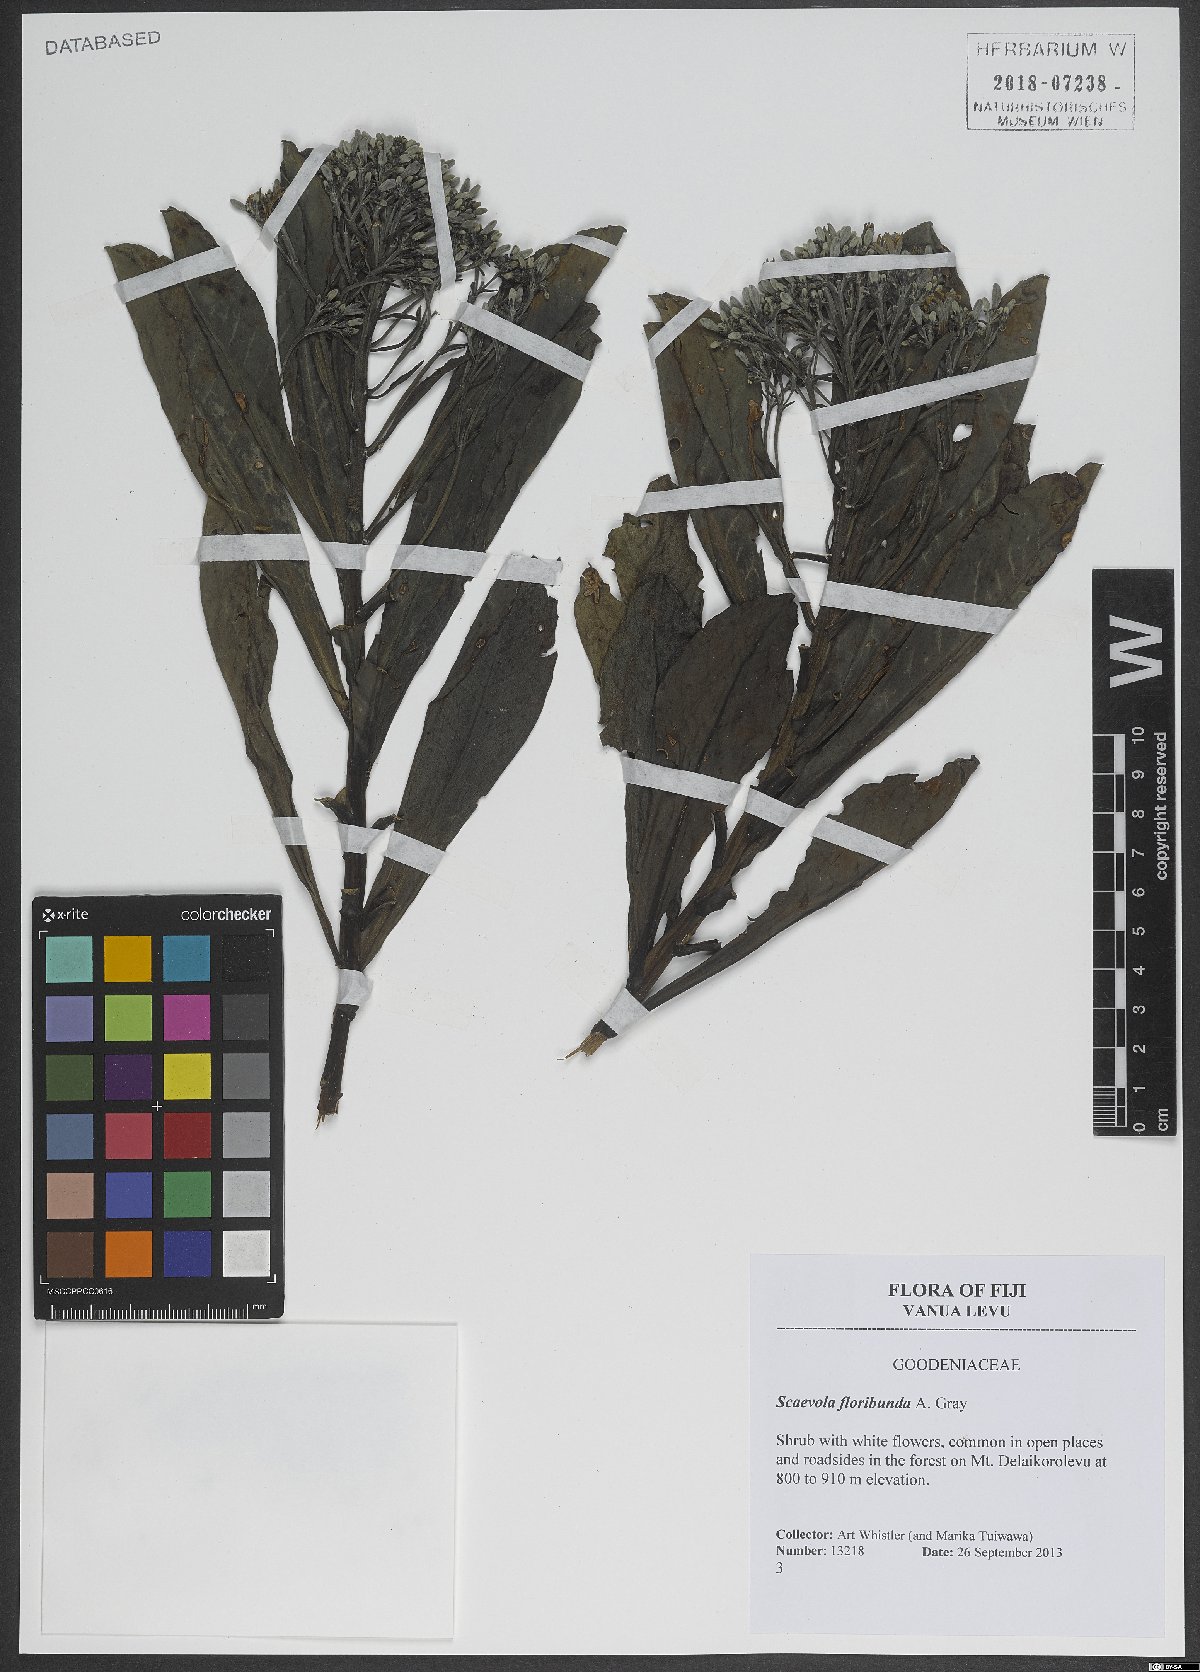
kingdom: Plantae
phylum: Tracheophyta
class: Magnoliopsida
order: Asterales
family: Goodeniaceae
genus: Scaevola
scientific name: Scaevola floribunda
